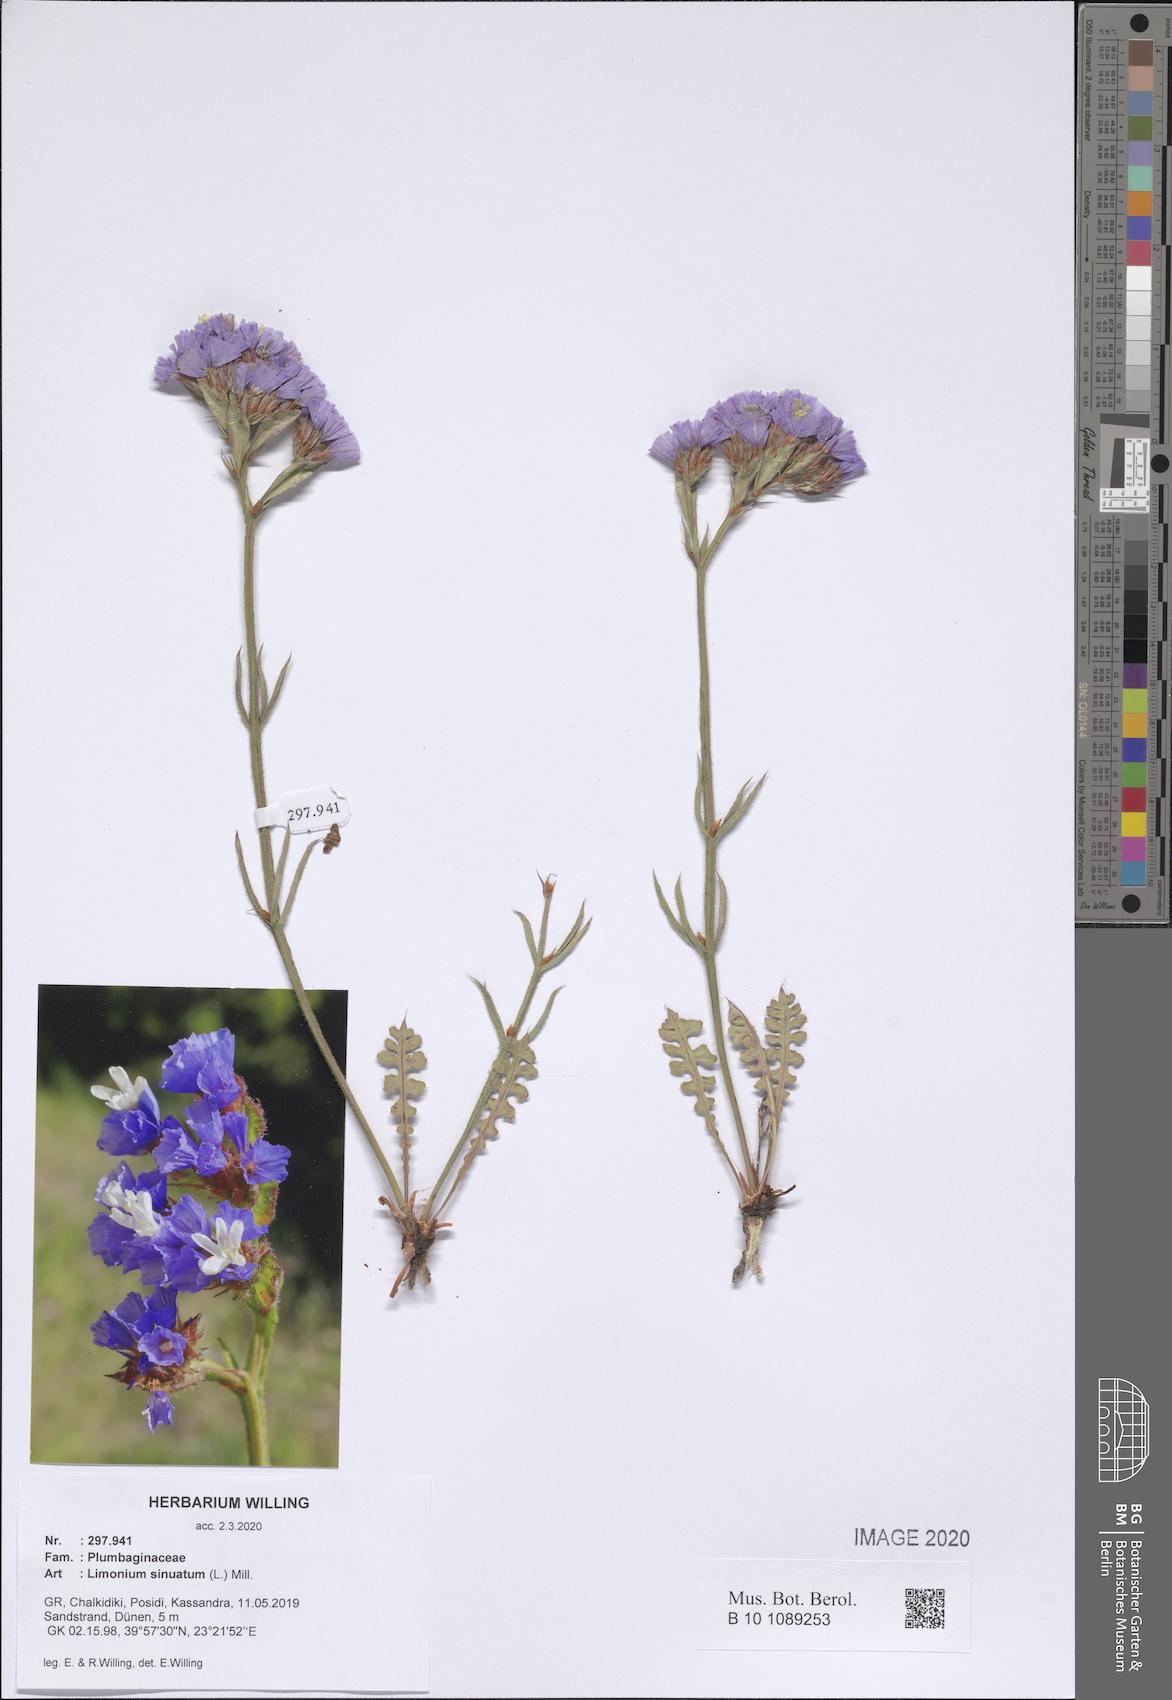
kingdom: Plantae
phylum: Tracheophyta
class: Magnoliopsida
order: Caryophyllales
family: Plumbaginaceae
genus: Limonium
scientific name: Limonium sinuatum
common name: Statice
